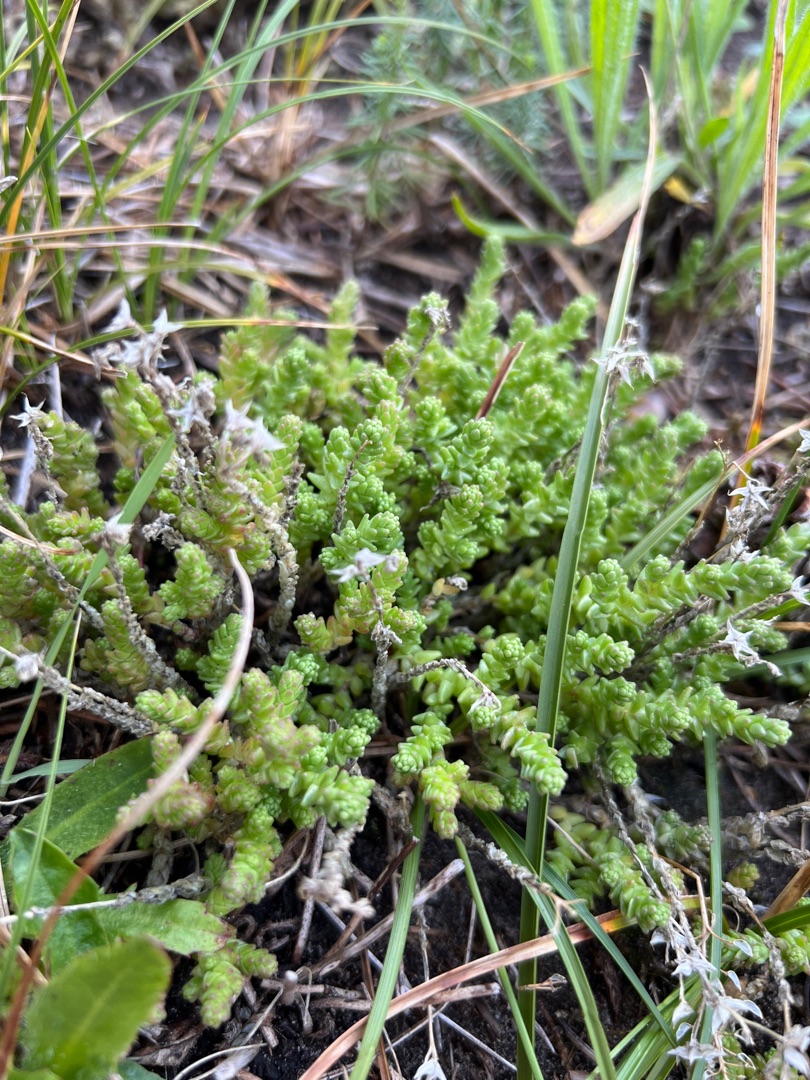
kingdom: Plantae
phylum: Tracheophyta
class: Magnoliopsida
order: Saxifragales
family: Crassulaceae
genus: Sedum
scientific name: Sedum acre
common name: Bidende stenurt
